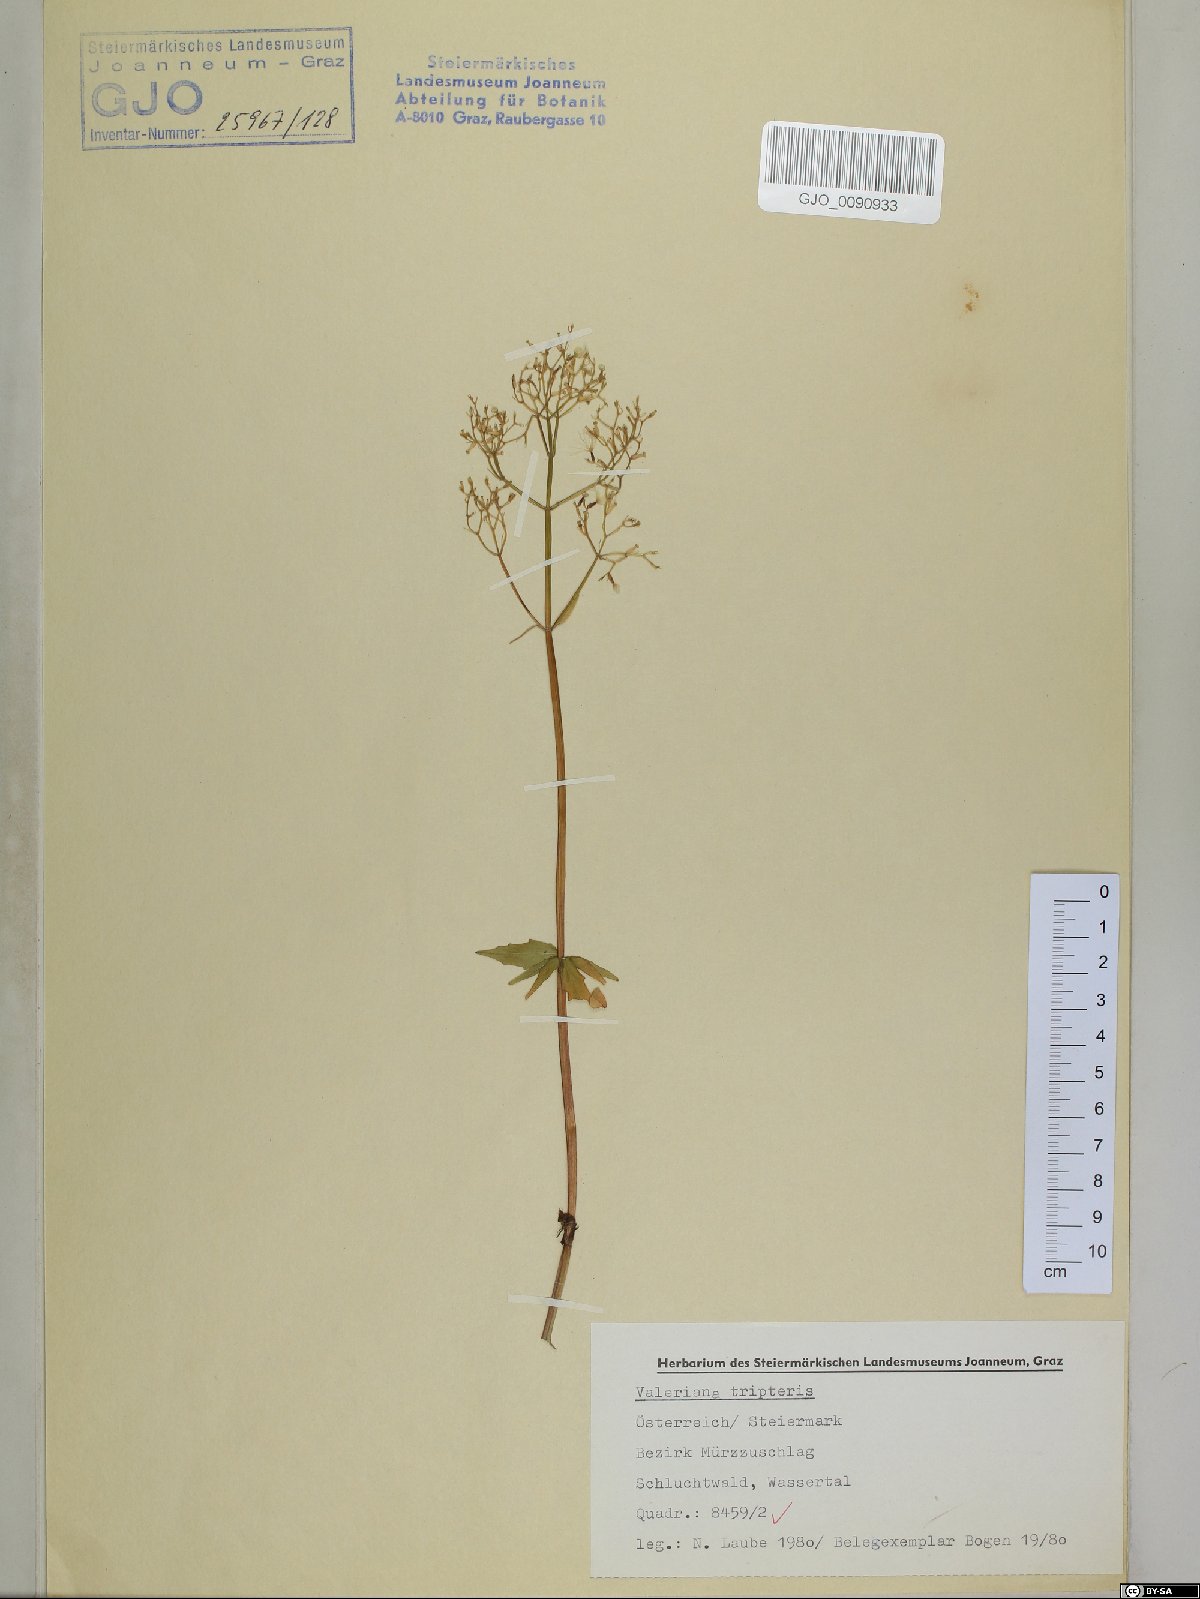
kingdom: Plantae
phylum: Tracheophyta
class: Magnoliopsida
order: Dipsacales
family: Caprifoliaceae
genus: Valeriana
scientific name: Valeriana tripteris
